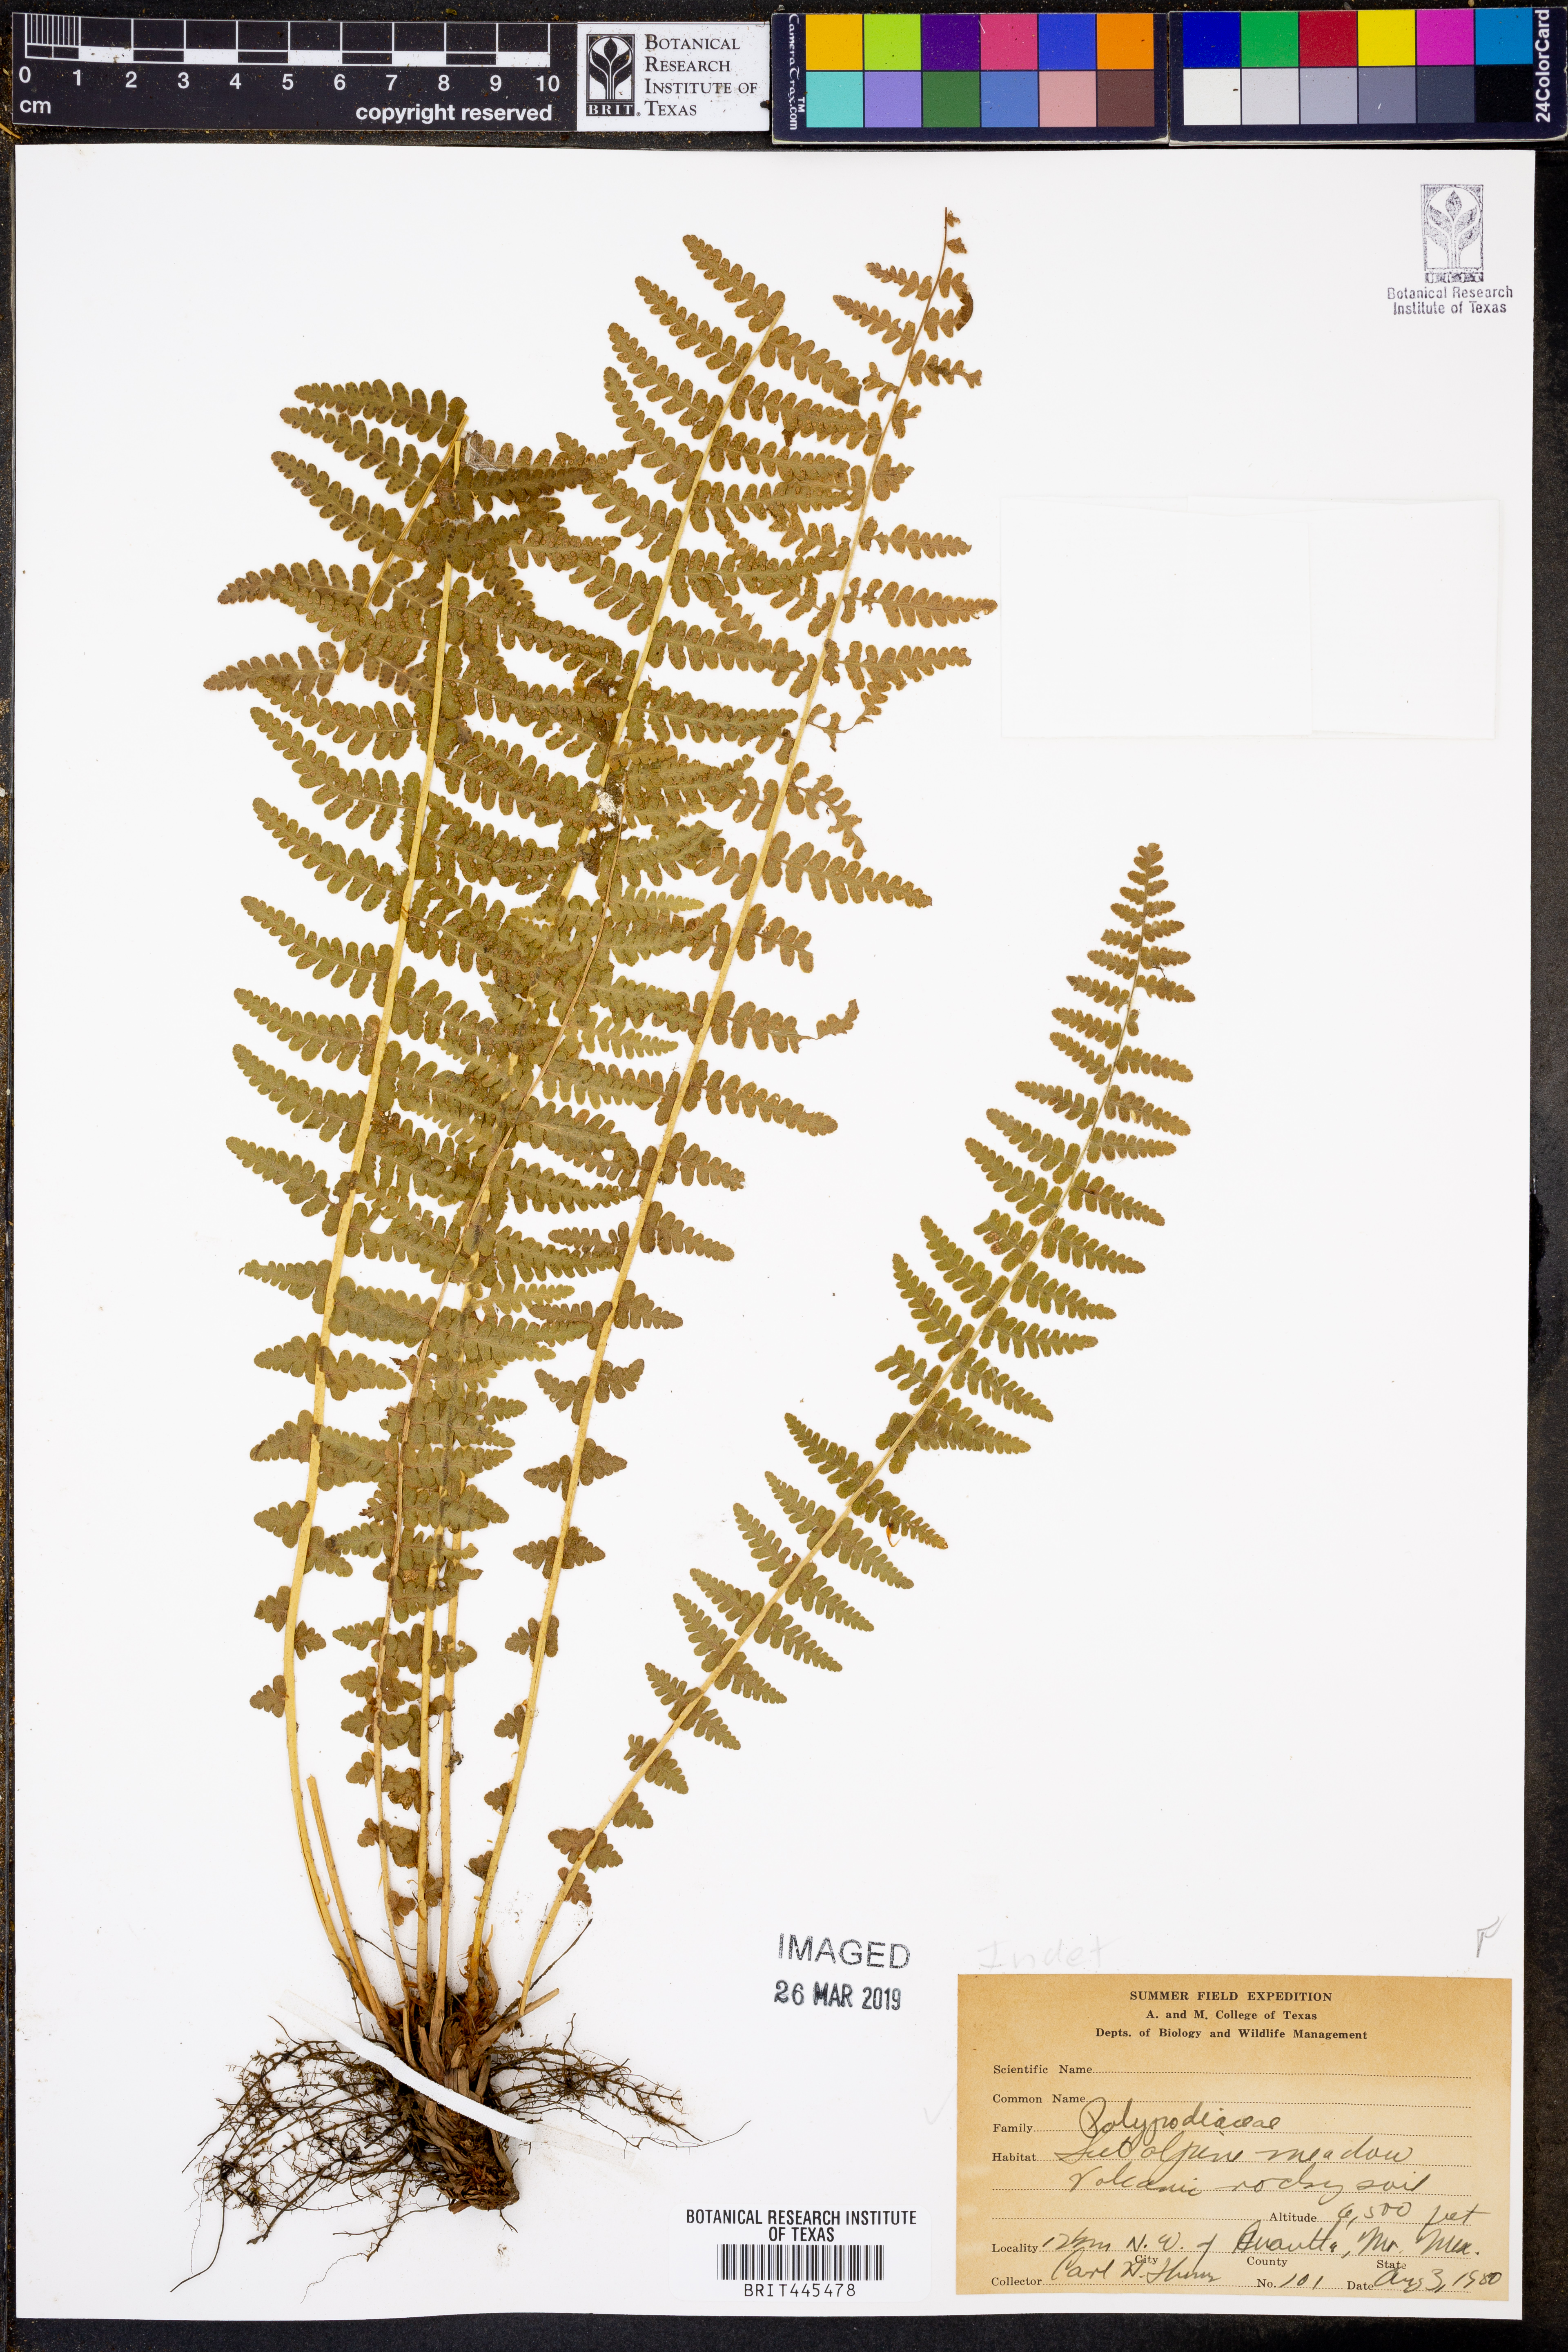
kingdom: Plantae
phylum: Tracheophyta
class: Polypodiopsida
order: Polypodiales
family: Polypodiaceae
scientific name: Polypodiaceae
